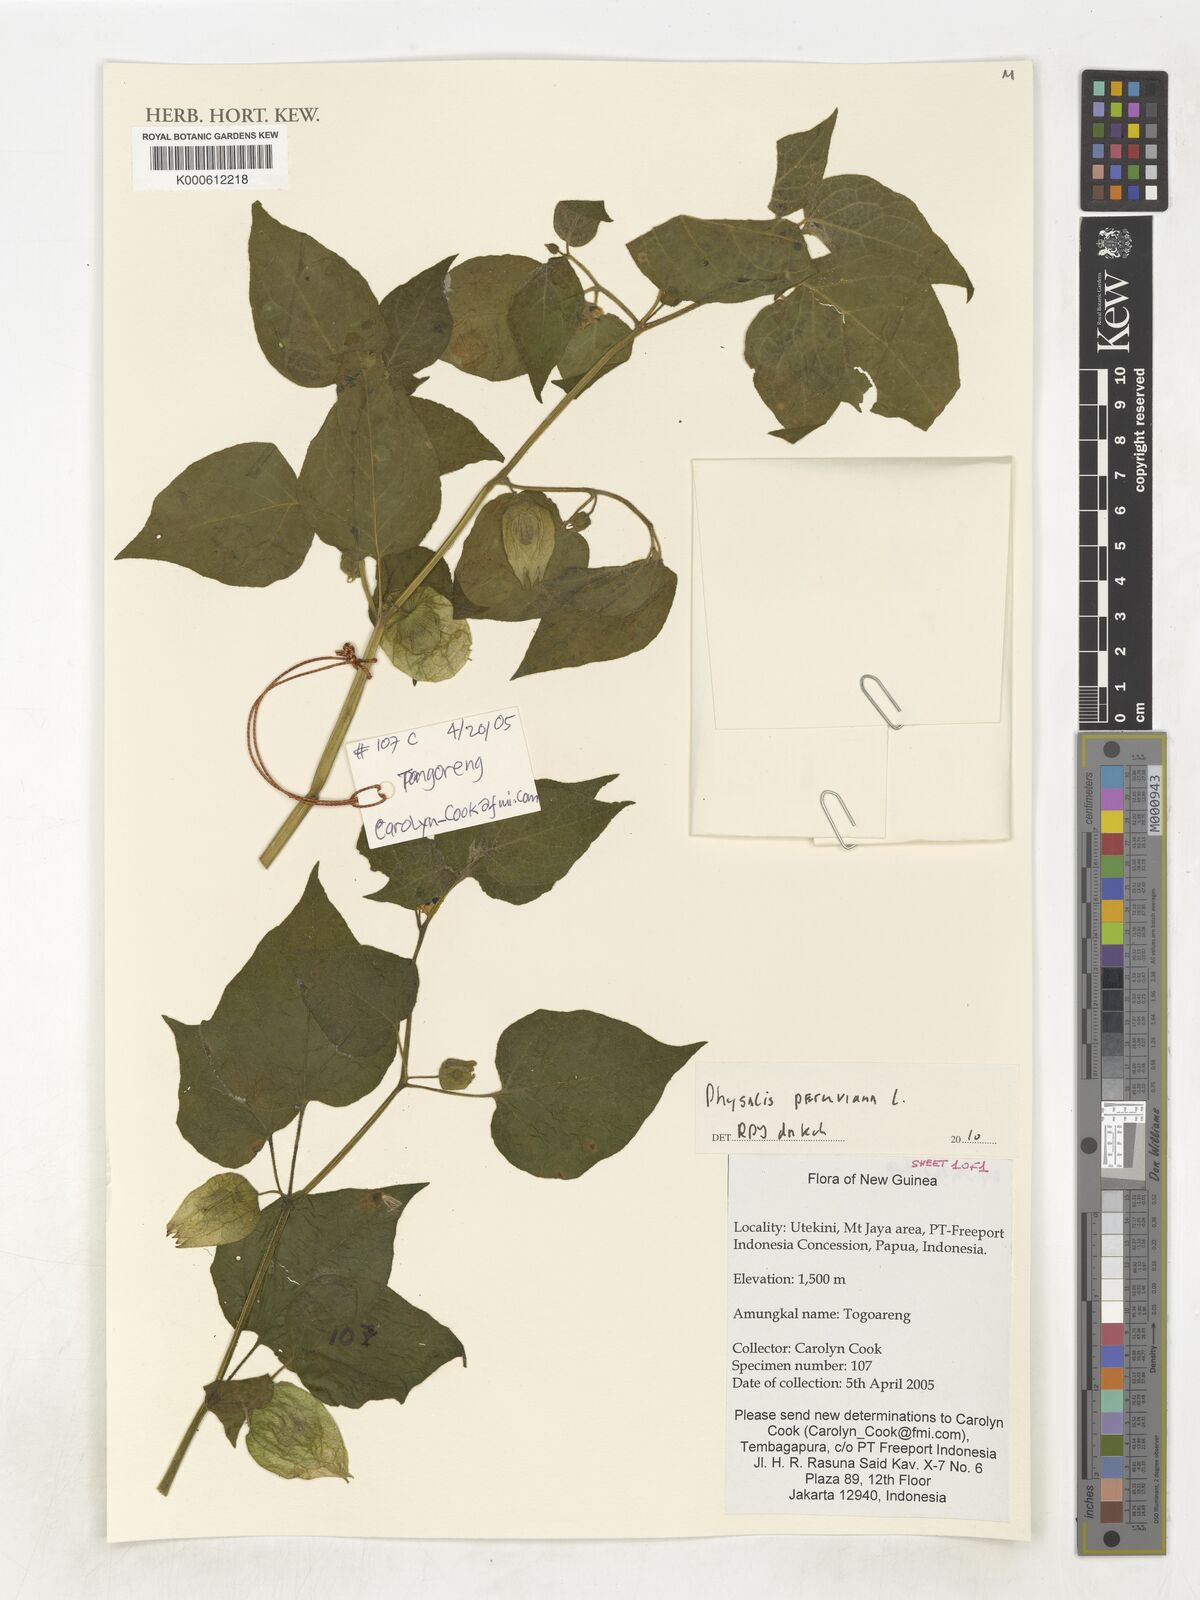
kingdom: Plantae
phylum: Tracheophyta
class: Magnoliopsida
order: Solanales
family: Solanaceae
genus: Physalis
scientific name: Physalis peruviana
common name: Cape-gooseberry
